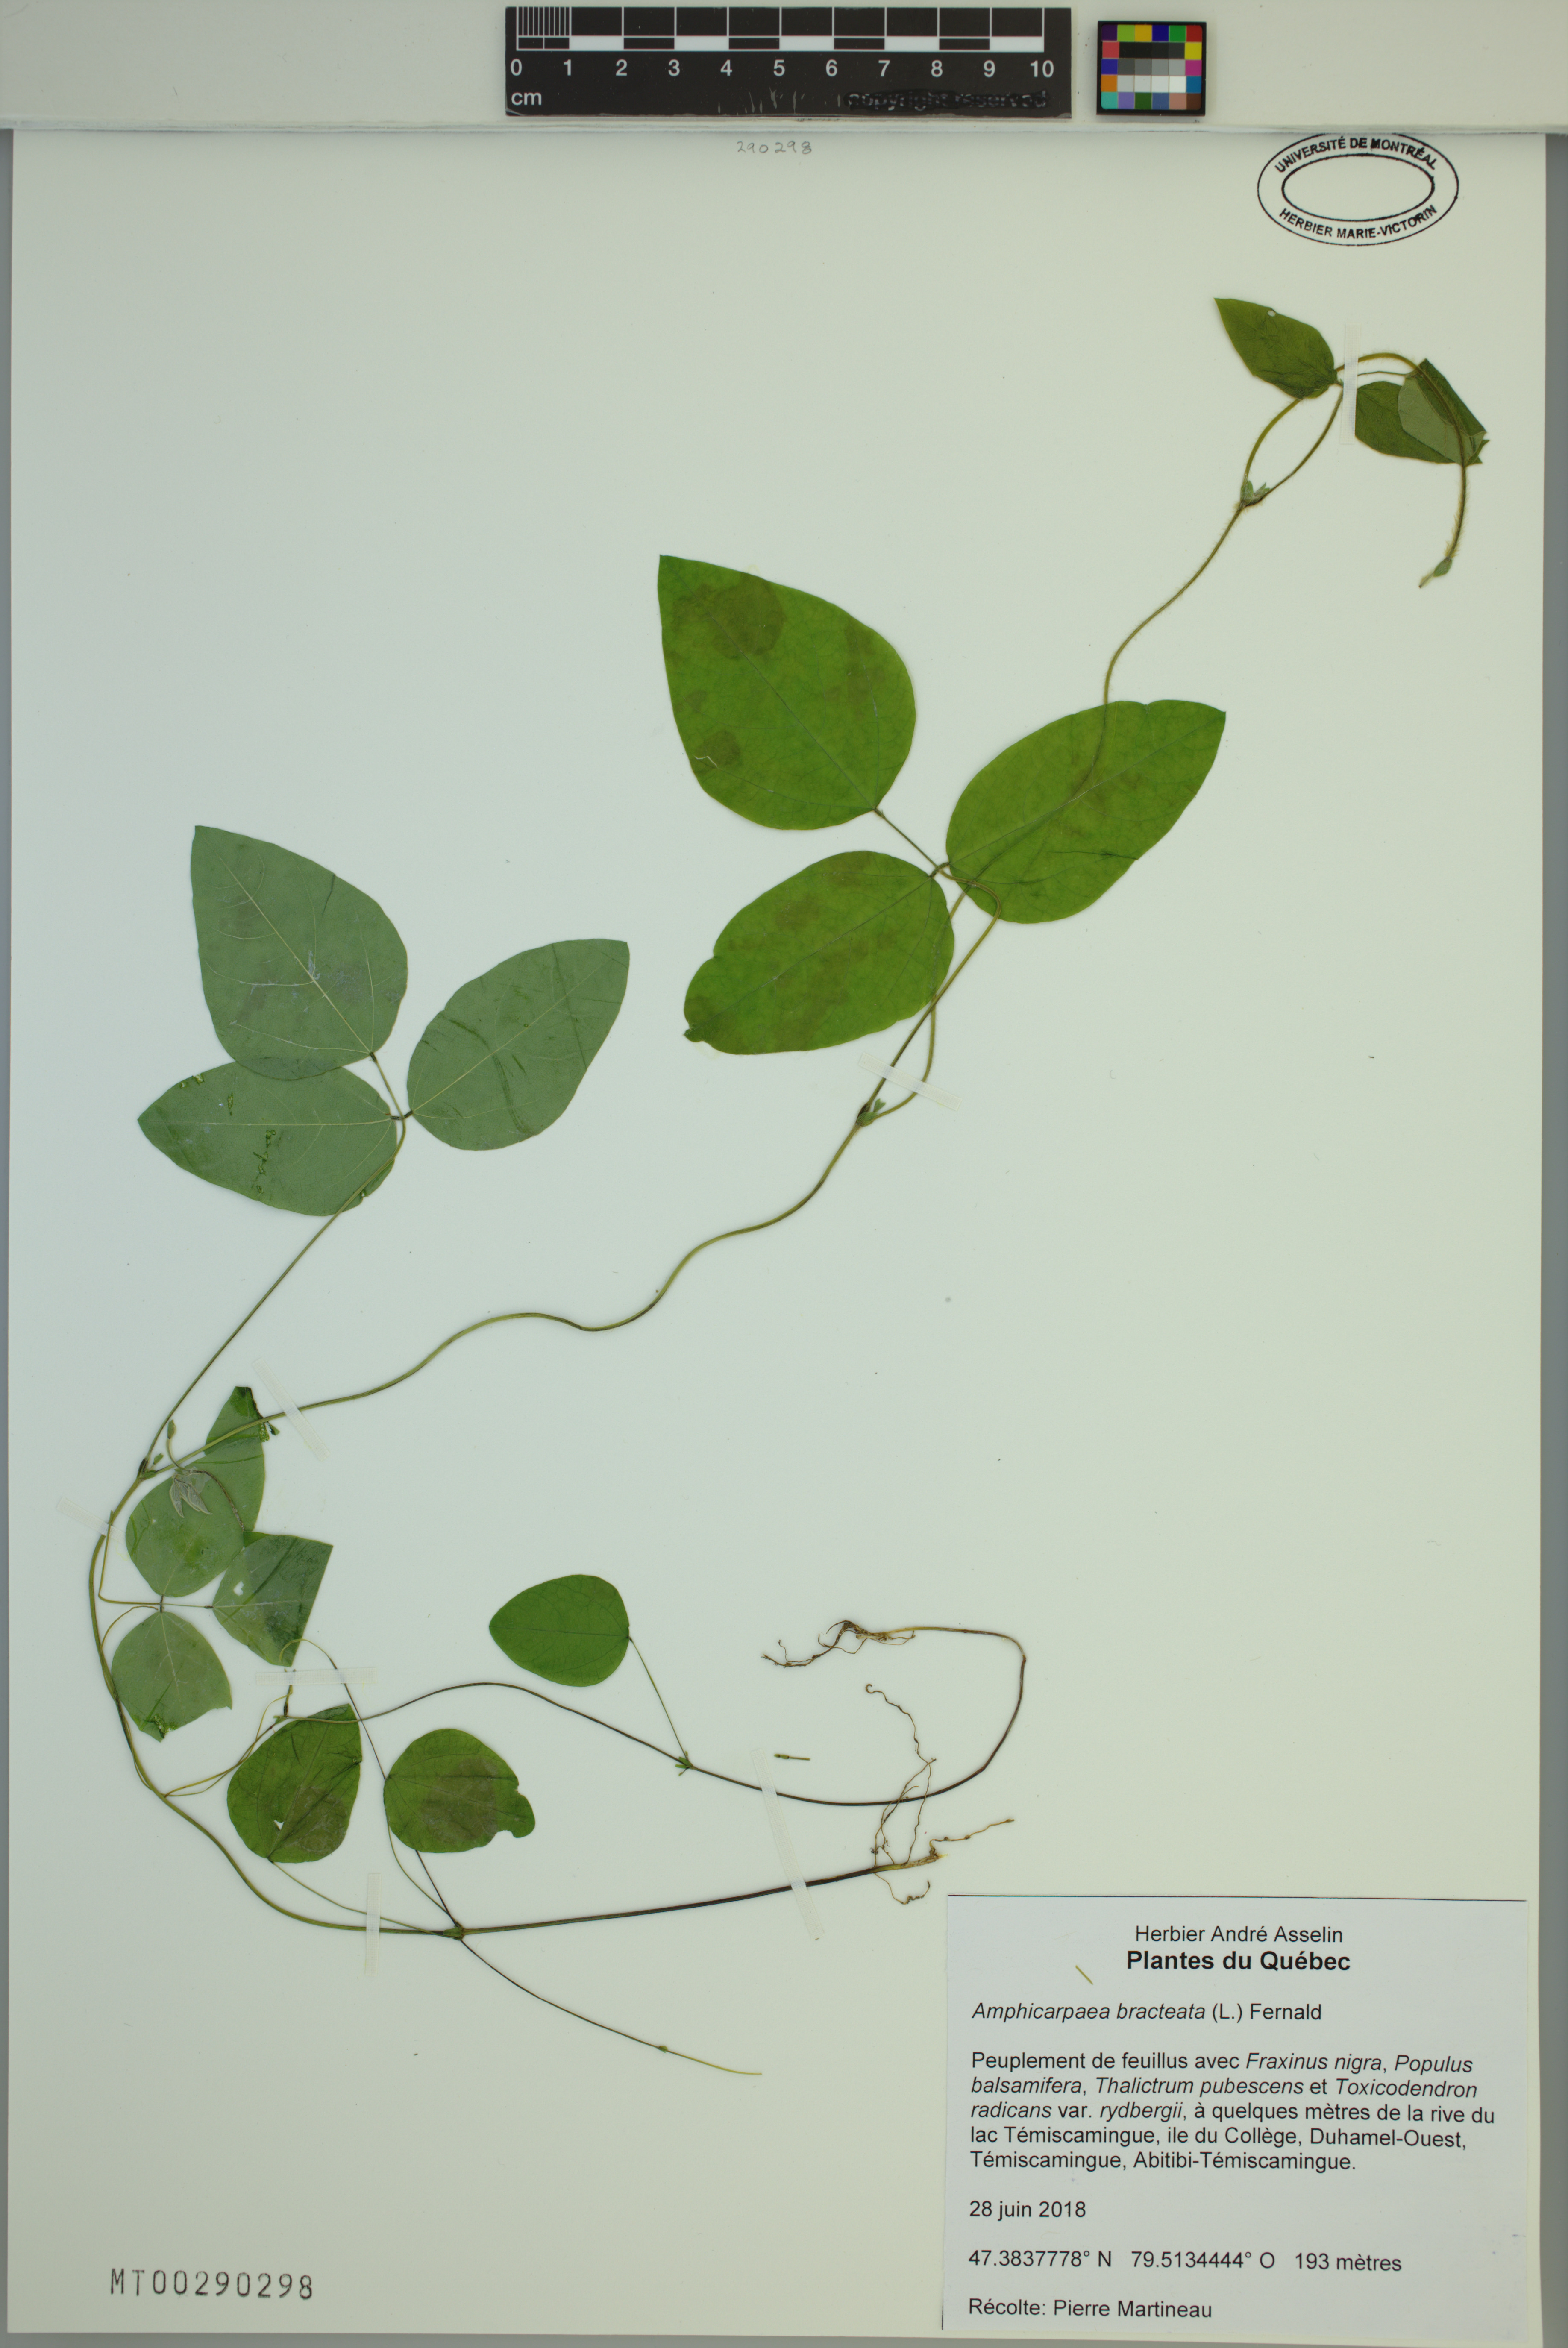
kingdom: Plantae
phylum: Tracheophyta
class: Magnoliopsida
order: Fabales
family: Fabaceae
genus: Amphicarpaea
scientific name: Amphicarpaea bracteata
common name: American hog peanut
